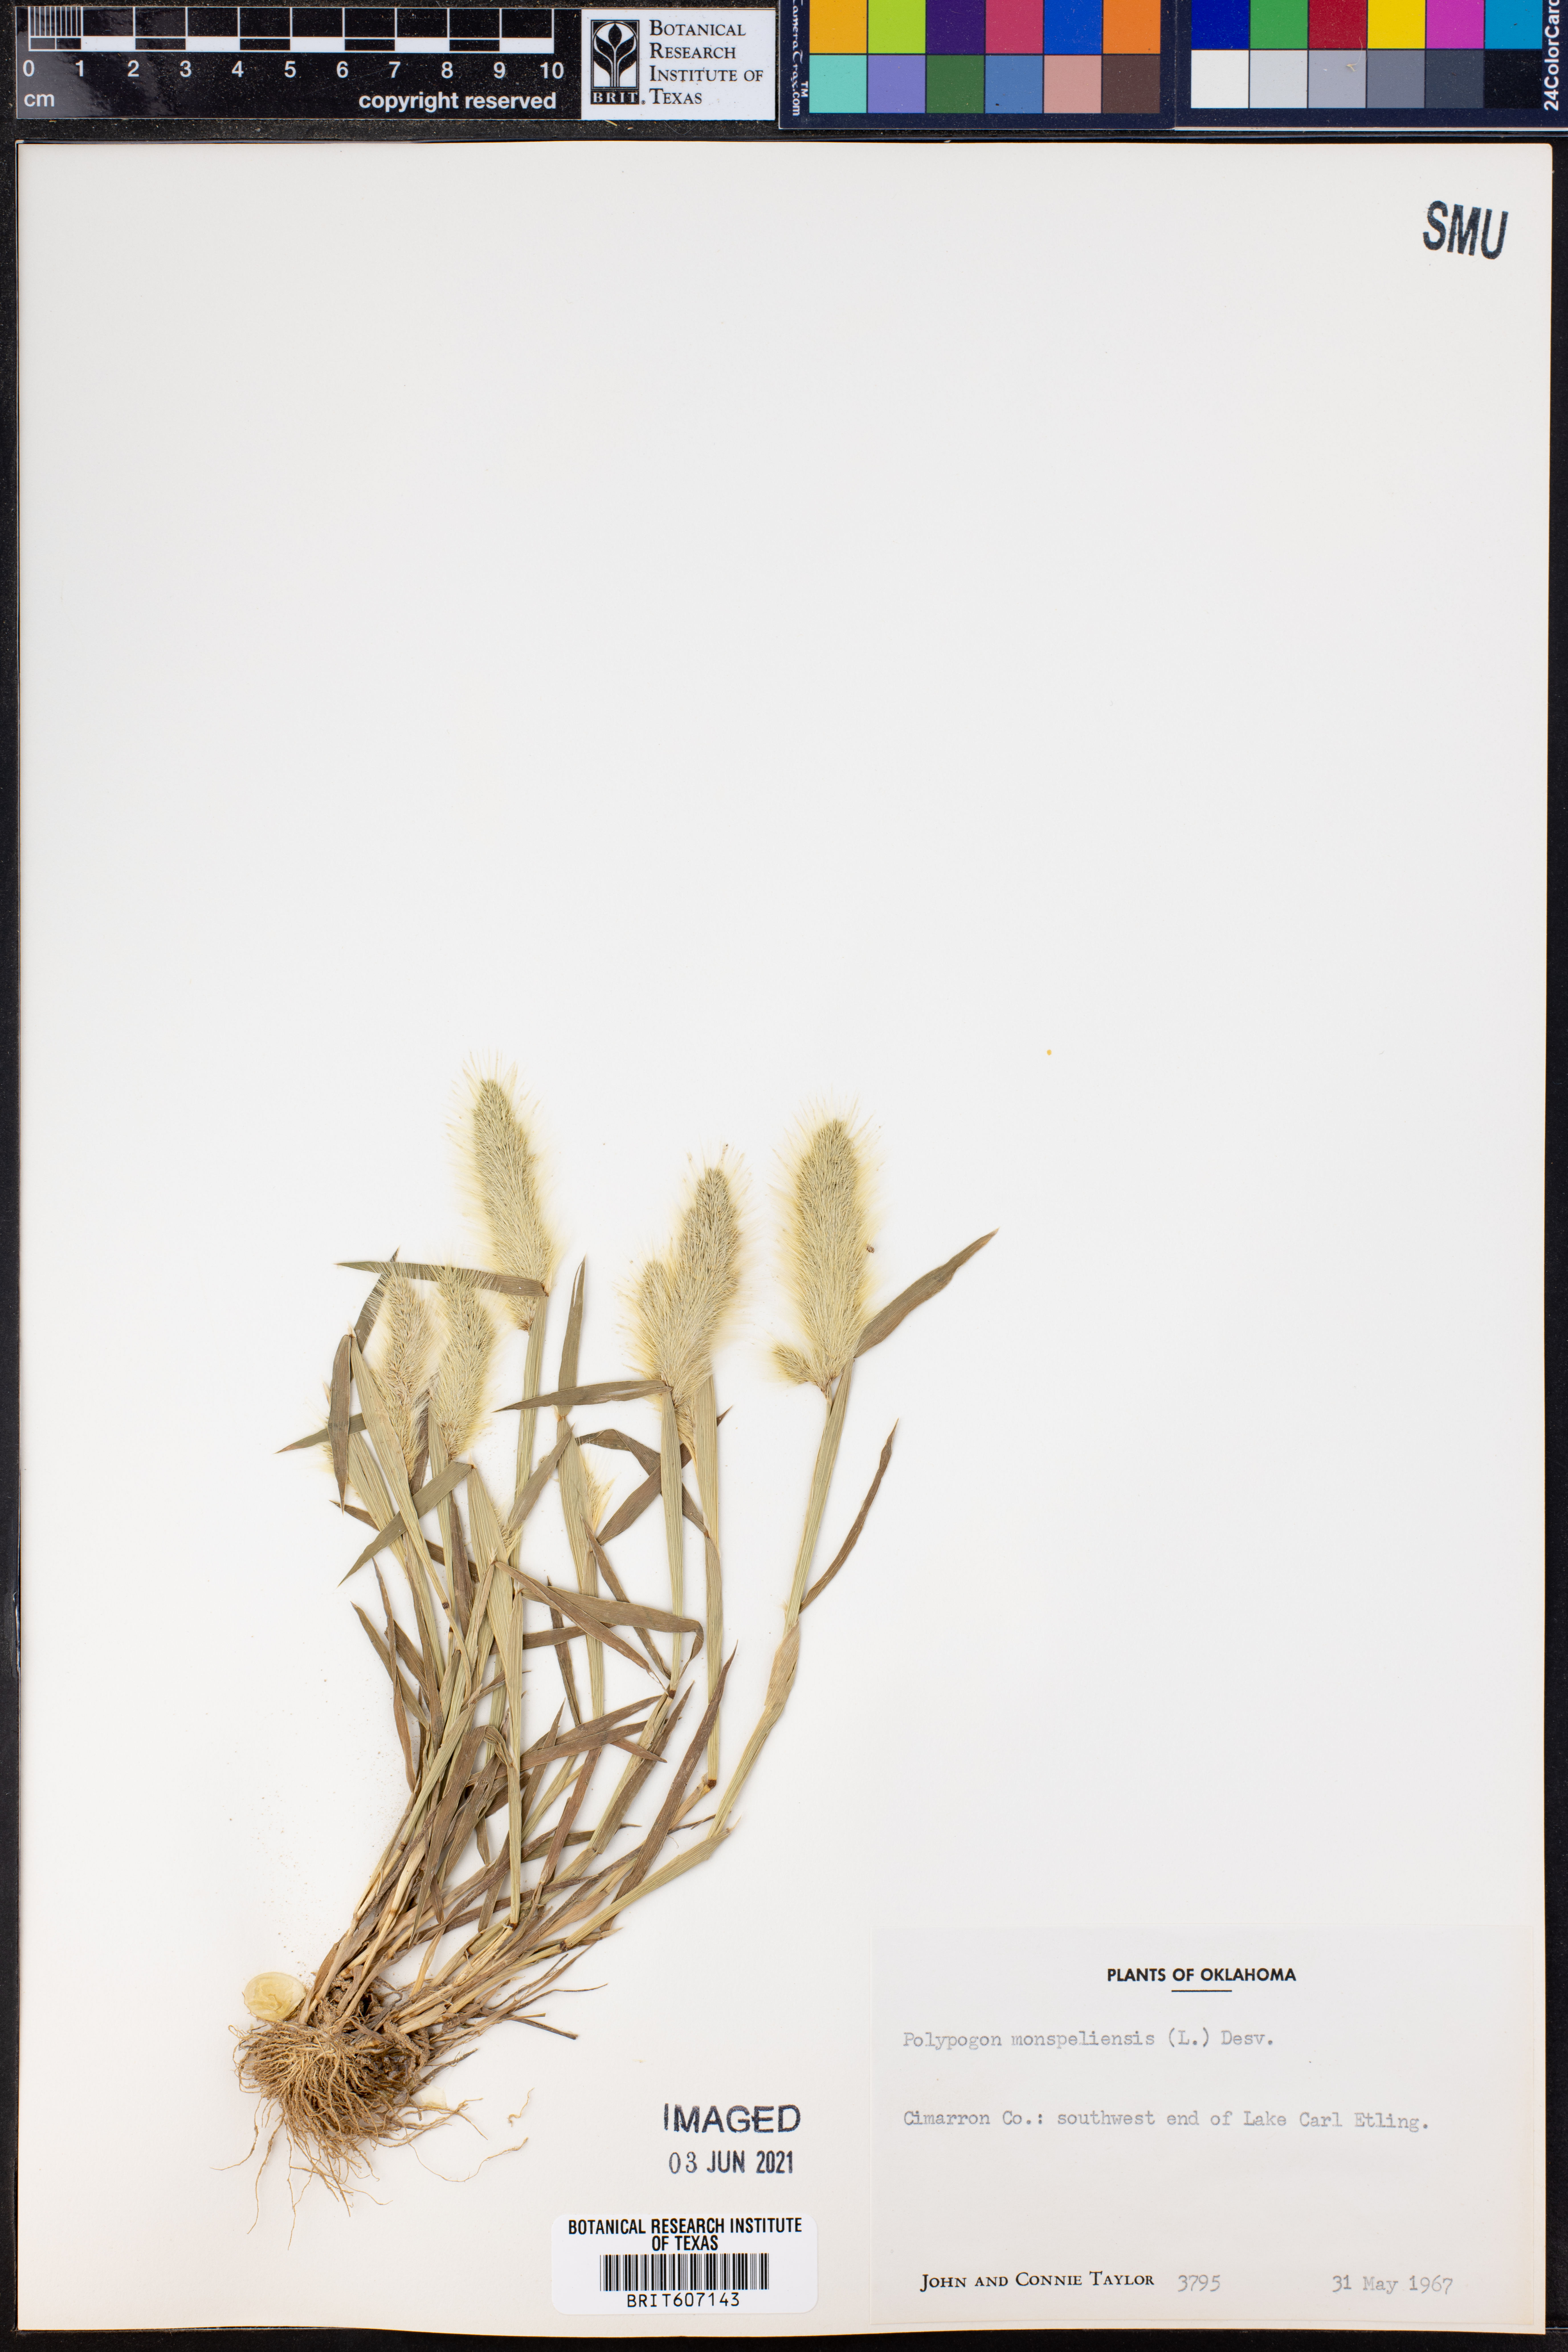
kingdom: Plantae
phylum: Tracheophyta
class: Liliopsida
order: Poales
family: Poaceae
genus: Polypogon
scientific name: Polypogon monspeliensis
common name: Annual rabbitsfoot grass
